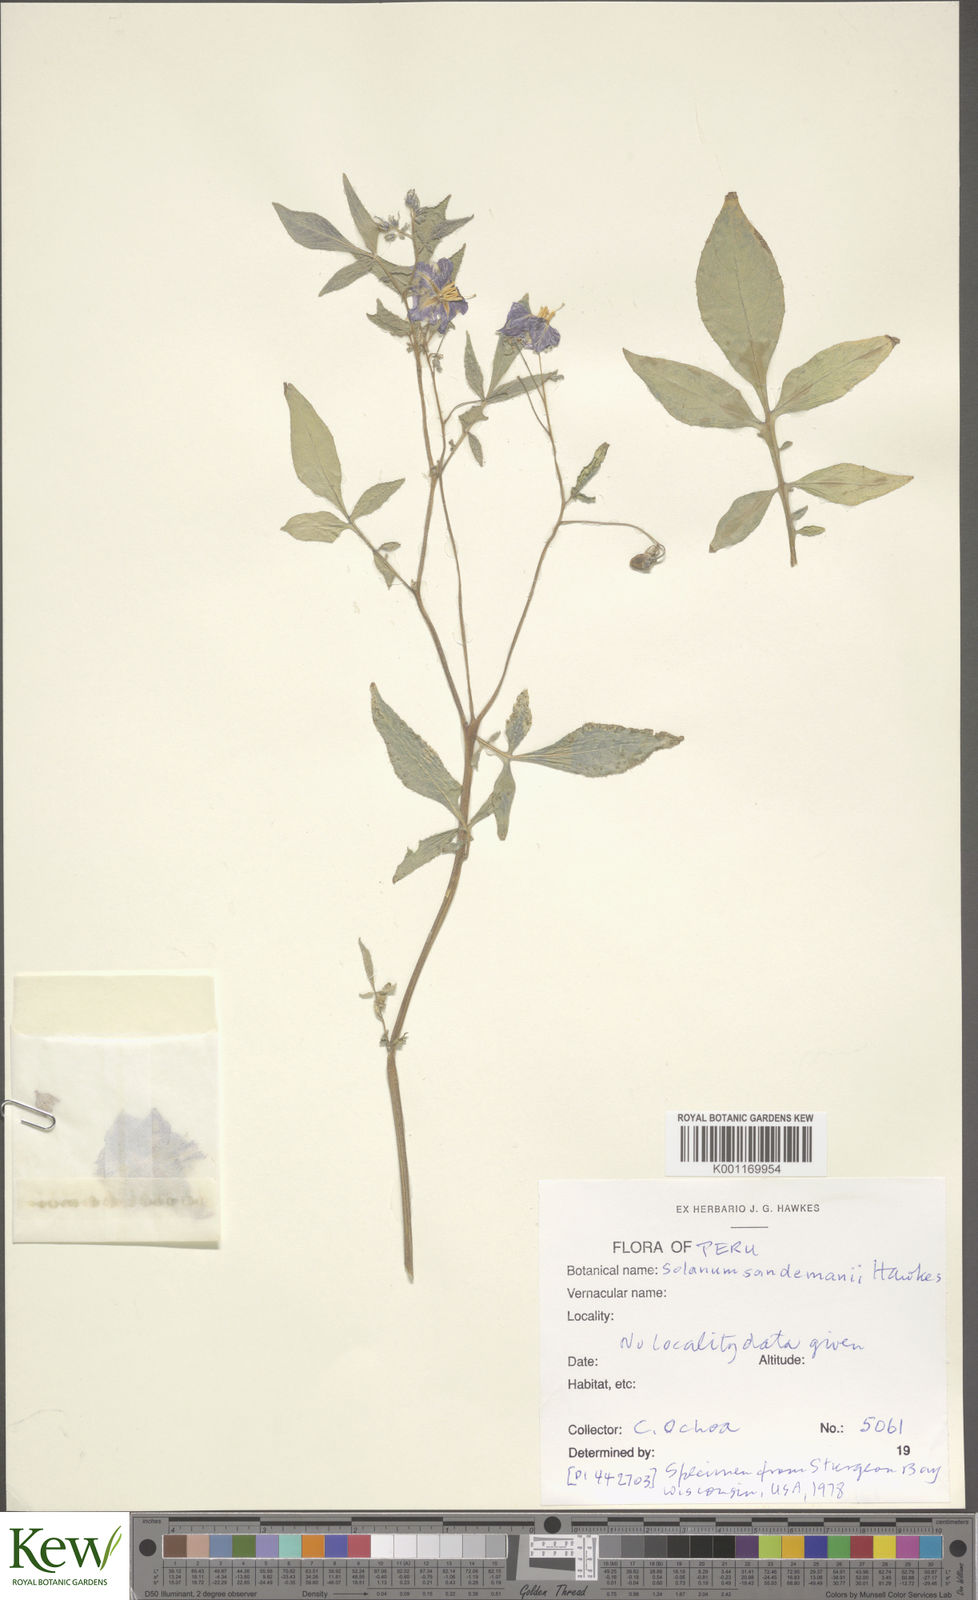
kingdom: Plantae
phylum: Tracheophyta
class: Magnoliopsida
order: Solanales
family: Solanaceae
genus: Solanum
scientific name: Solanum medians
